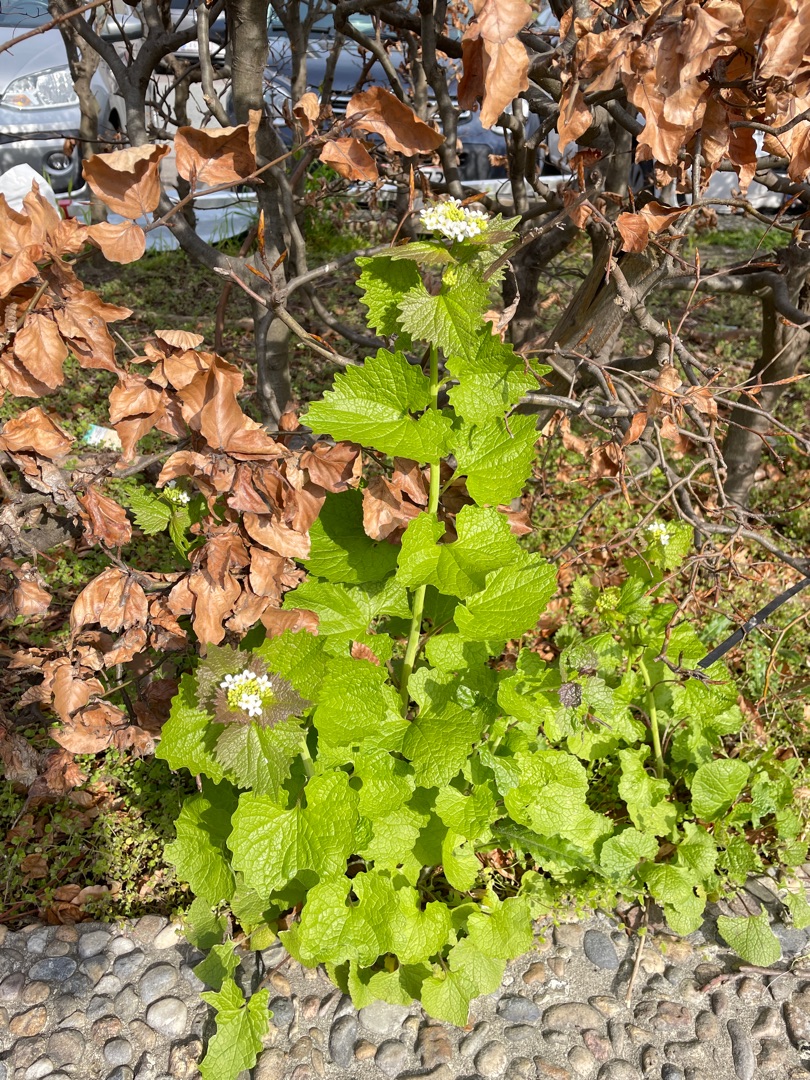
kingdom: Plantae
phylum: Tracheophyta
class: Magnoliopsida
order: Brassicales
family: Brassicaceae
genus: Alliaria
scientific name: Alliaria petiolata
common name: Løgkarse
